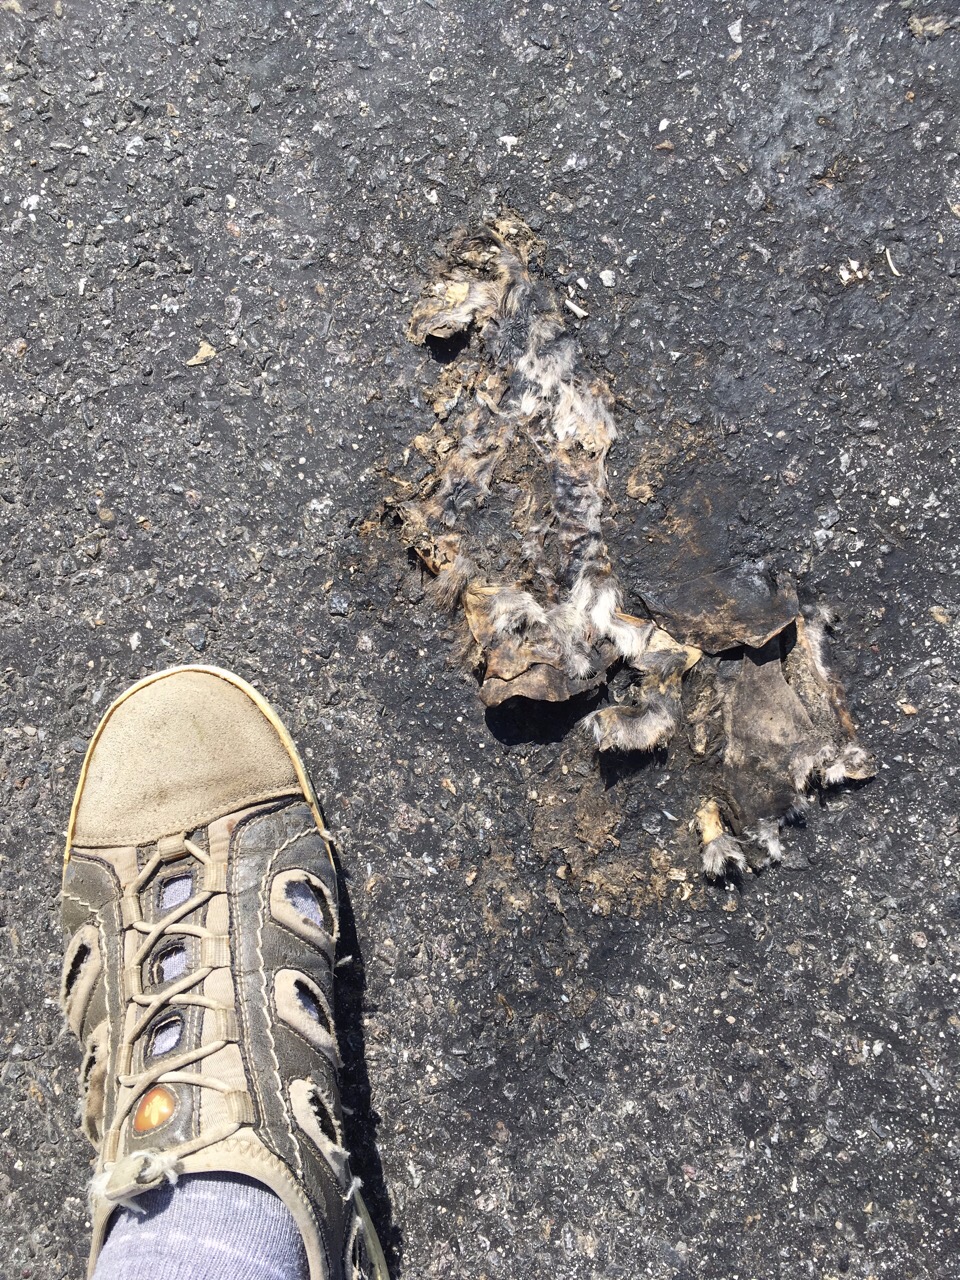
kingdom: Animalia
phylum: Chordata
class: Mammalia
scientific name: Mammalia
